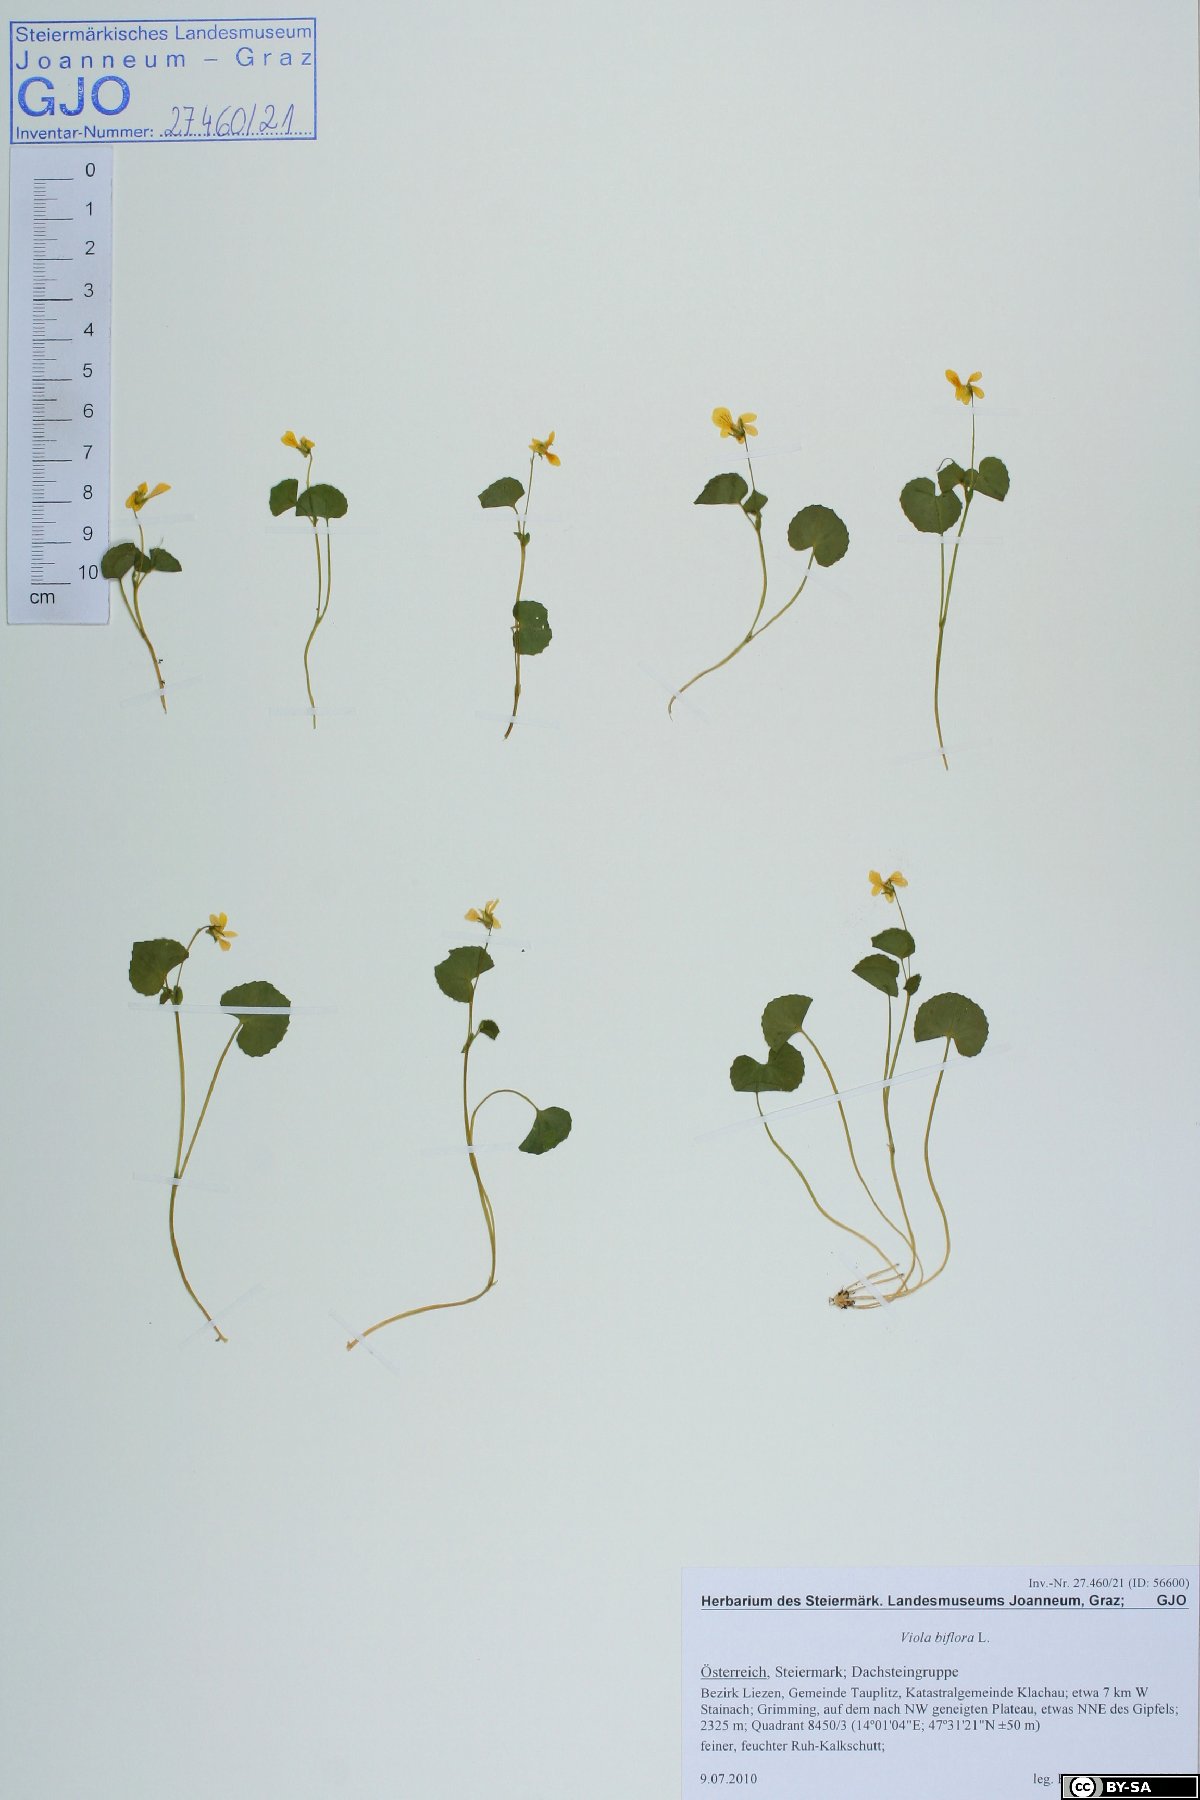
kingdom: Plantae
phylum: Tracheophyta
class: Magnoliopsida
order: Malpighiales
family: Violaceae
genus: Viola
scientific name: Viola biflora
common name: Alpine yellow violet
